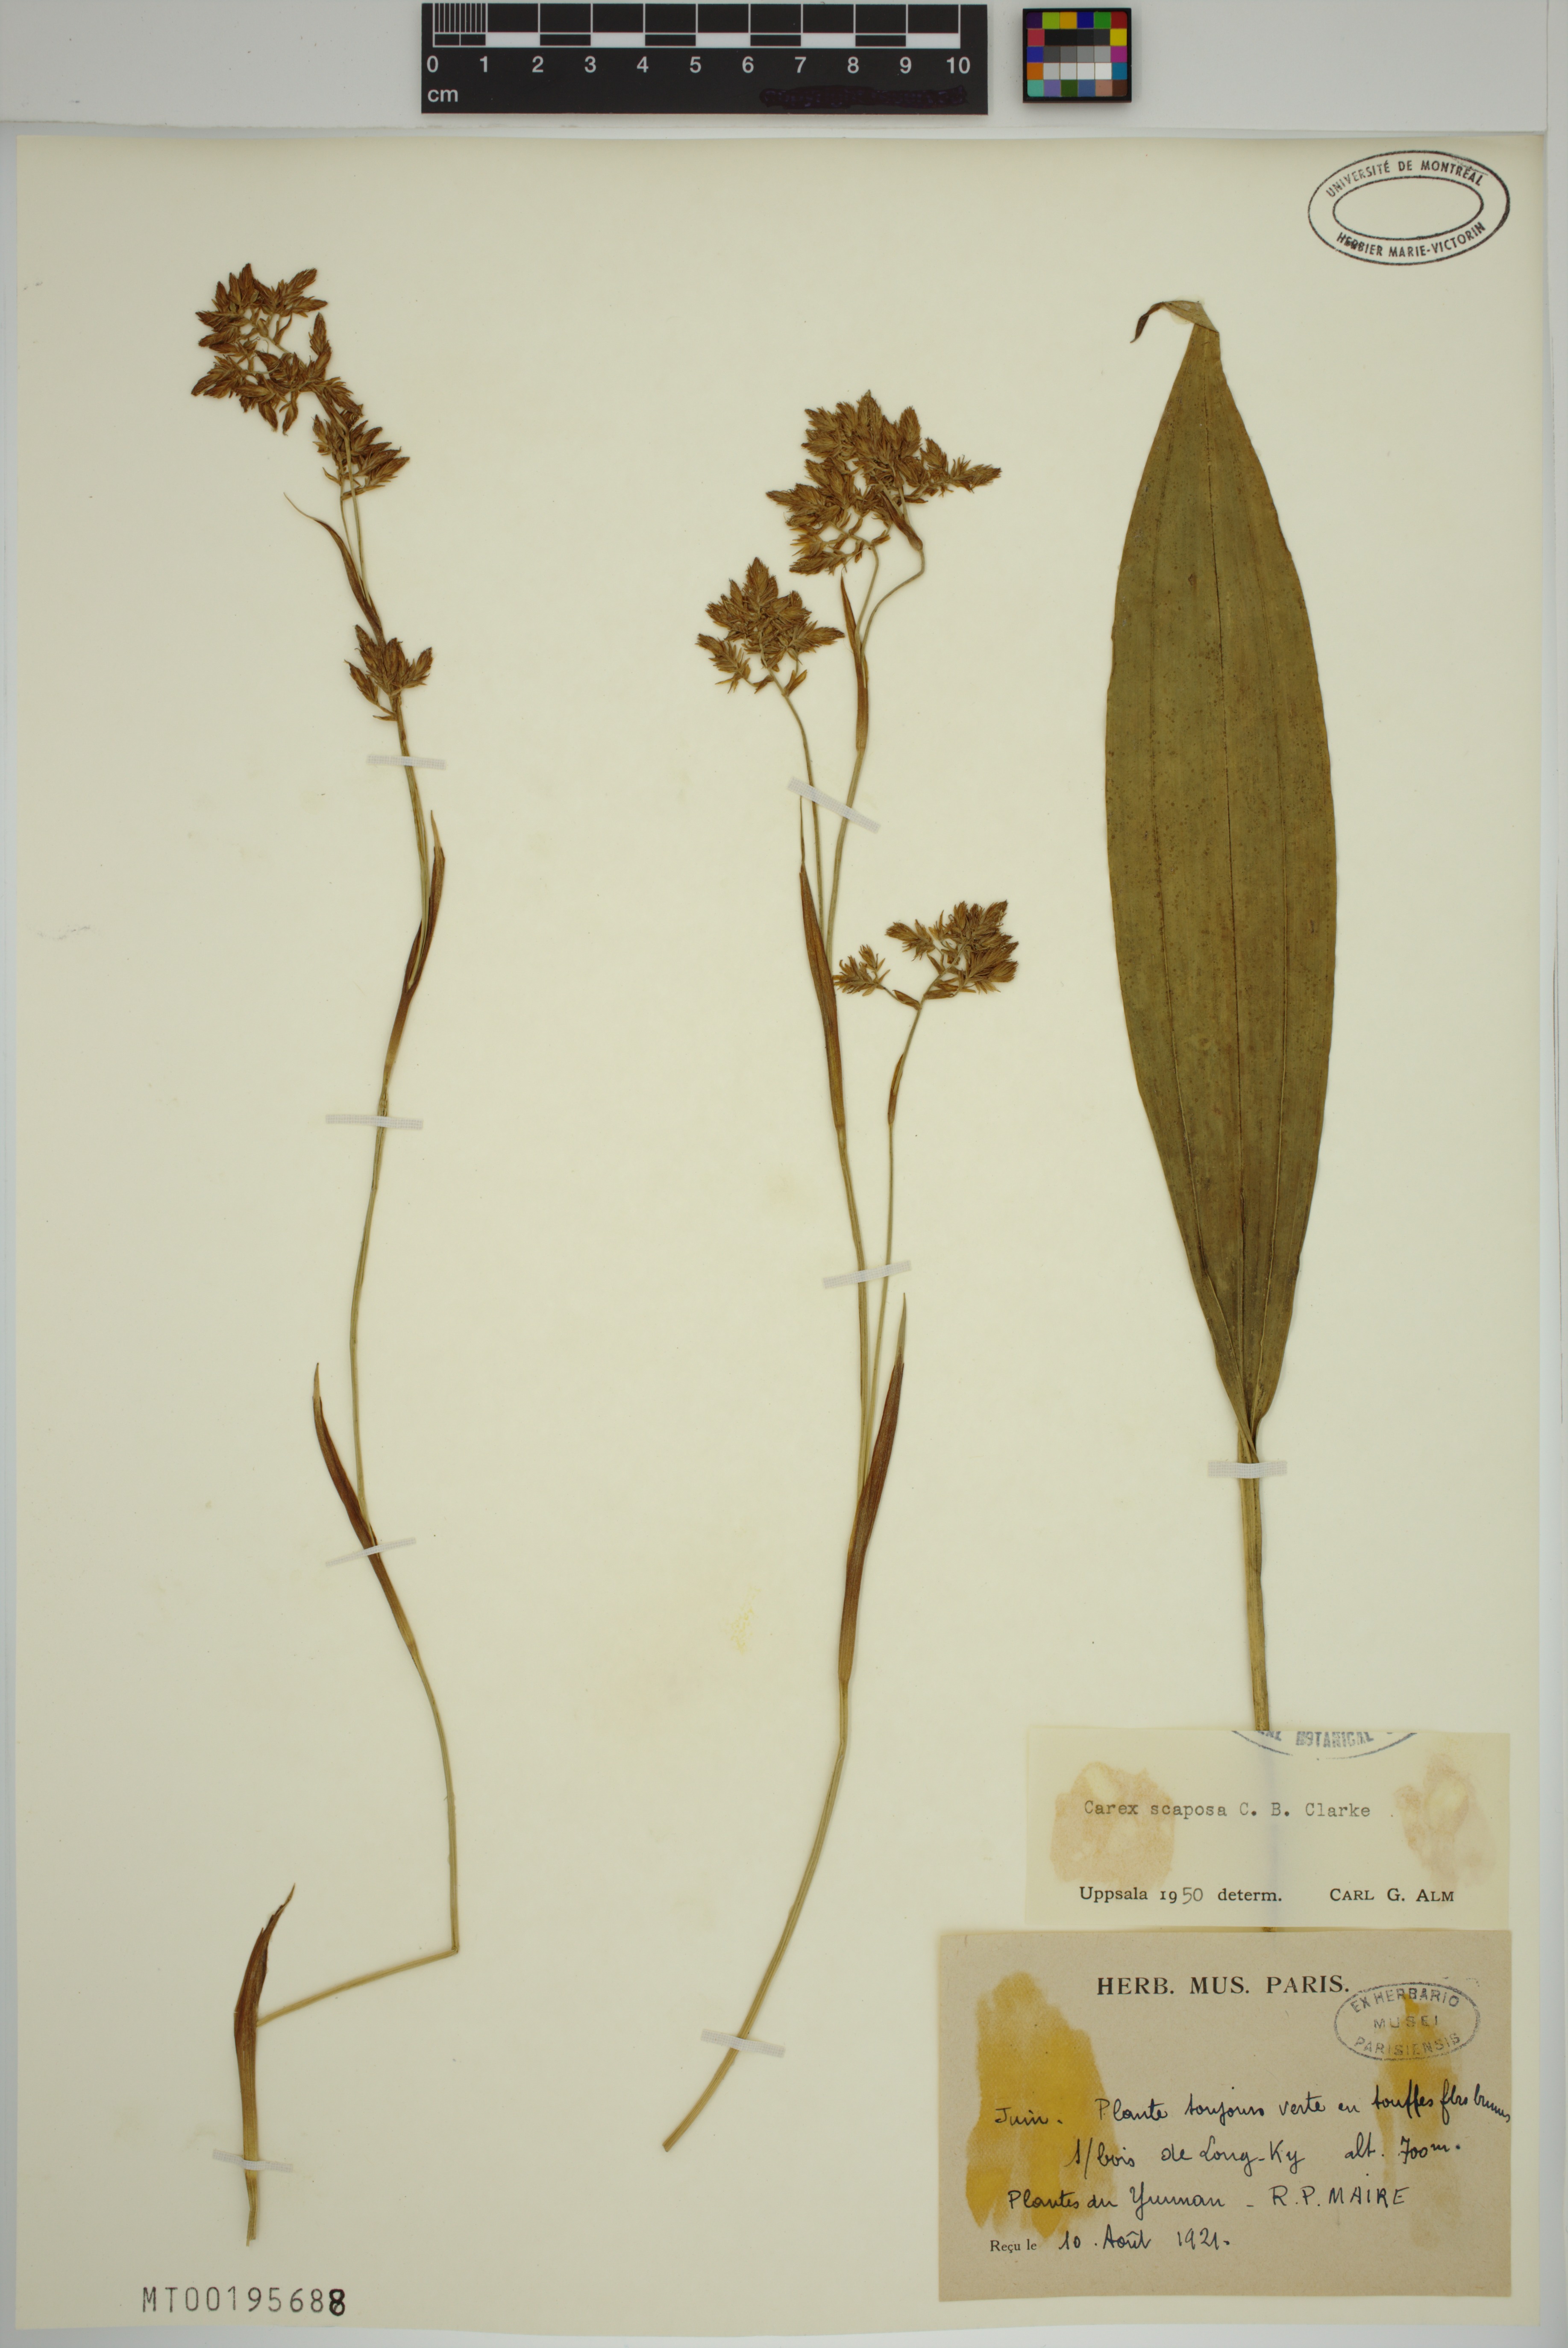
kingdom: Plantae
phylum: Tracheophyta
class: Liliopsida
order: Poales
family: Cyperaceae
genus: Carex
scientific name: Carex scaposa
